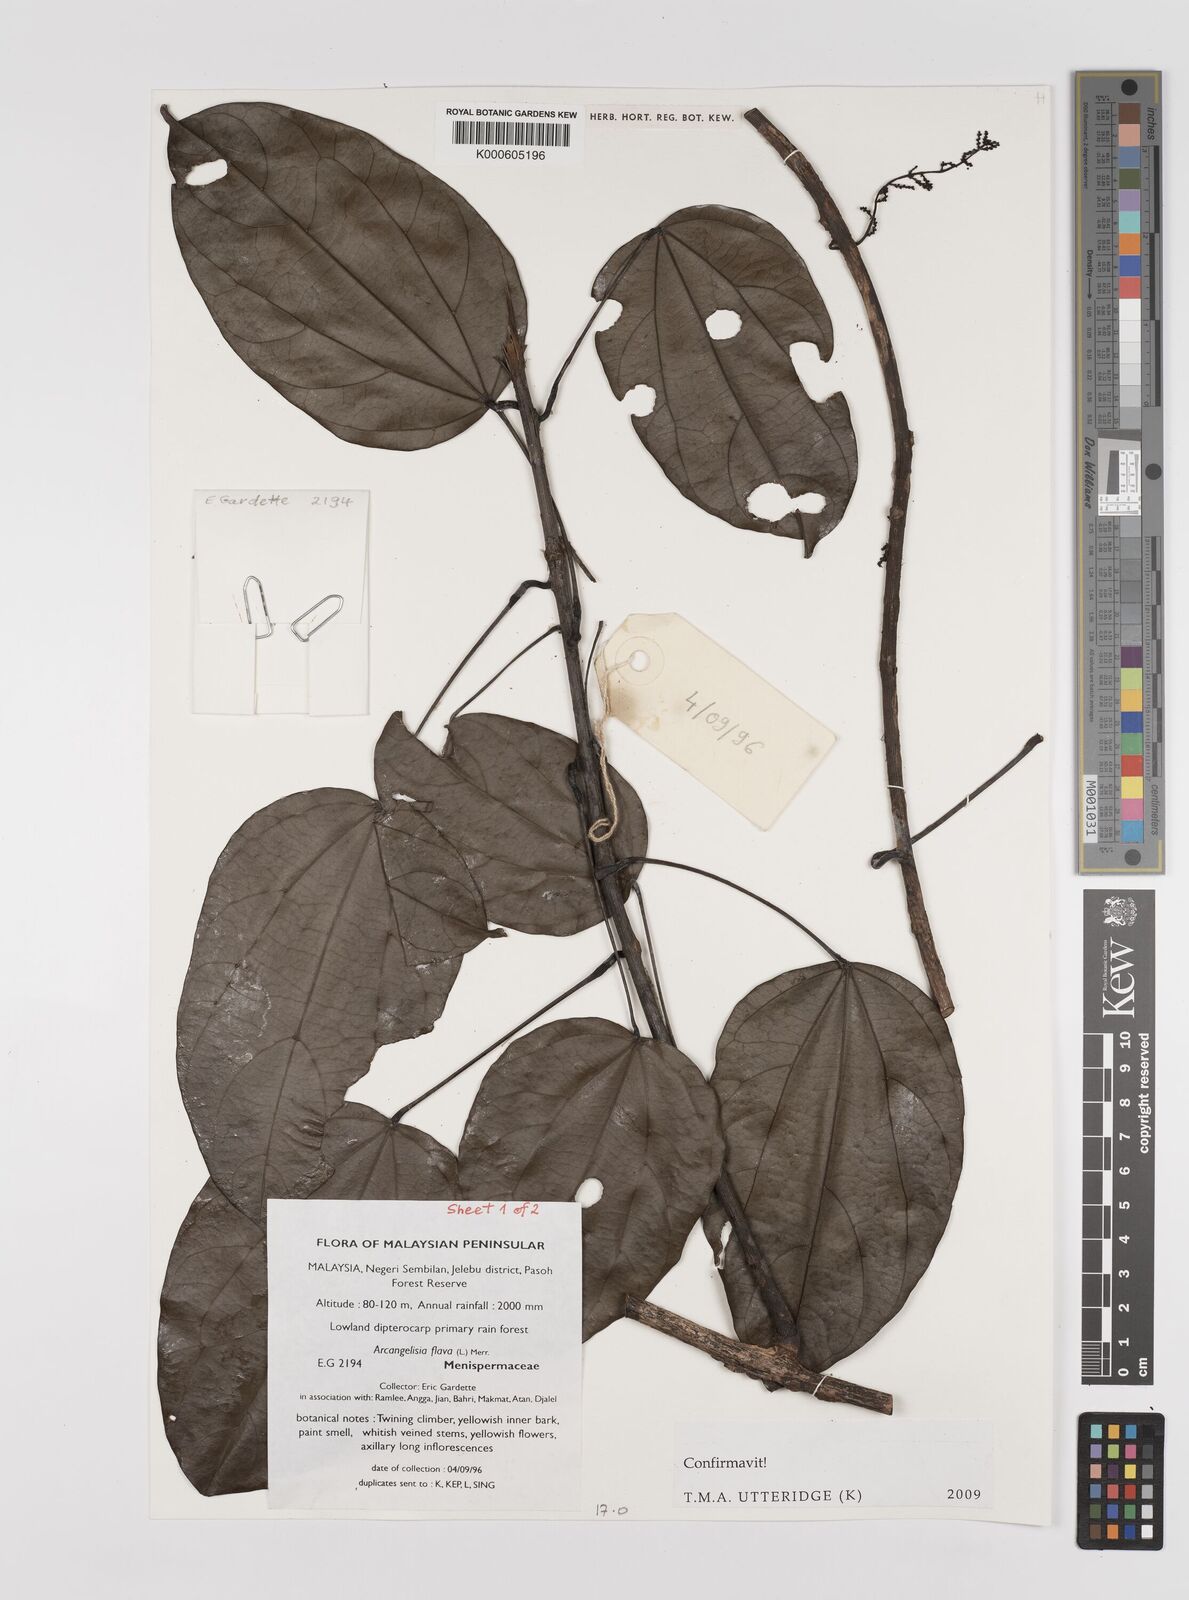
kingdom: Plantae
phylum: Tracheophyta
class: Magnoliopsida
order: Ranunculales
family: Menispermaceae
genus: Arcangelisia
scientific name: Arcangelisia flava
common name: Yellow-fruit moonseed
